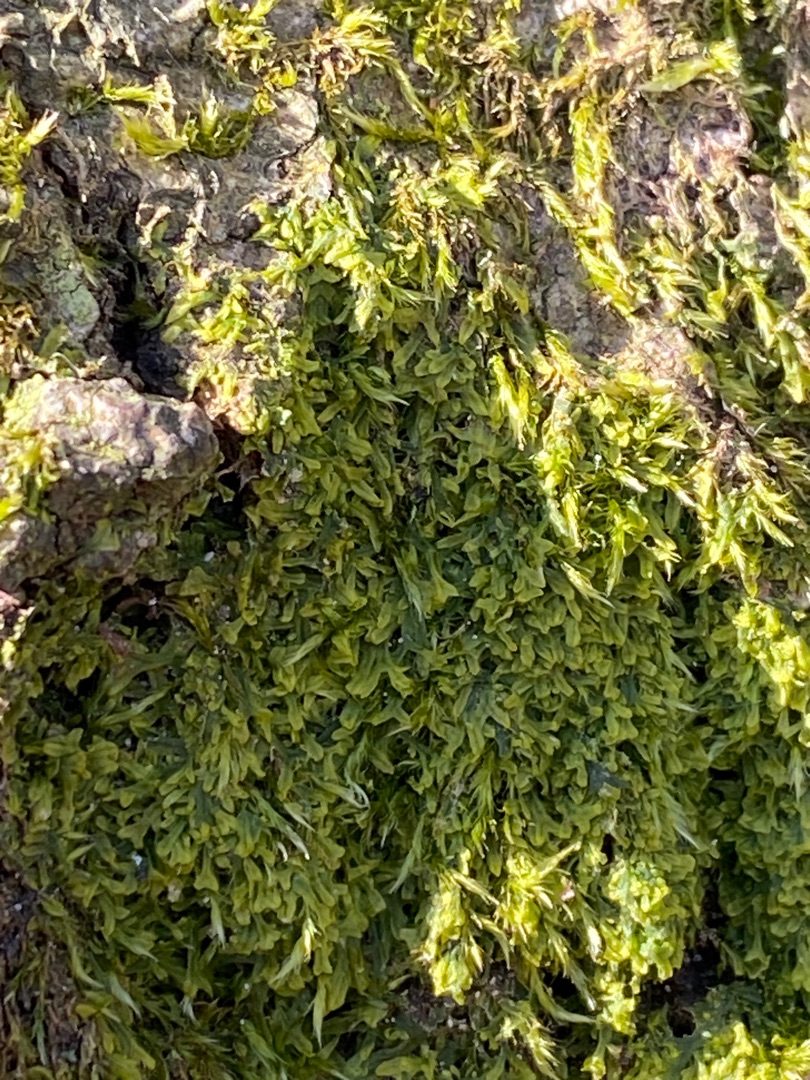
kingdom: Plantae
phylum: Marchantiophyta
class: Jungermanniopsida
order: Metzgeriales
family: Metzgeriaceae
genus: Metzgeria
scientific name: Metzgeria furcata
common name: Almindelig gaffelløv
